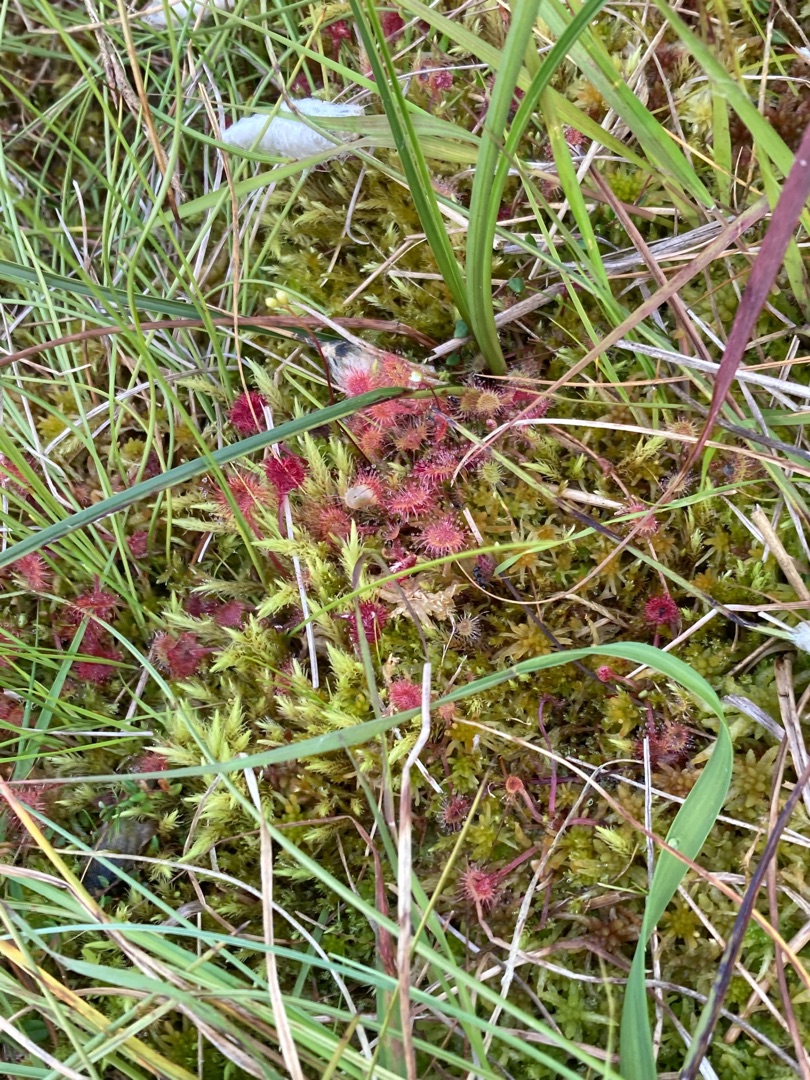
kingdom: Plantae
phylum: Tracheophyta
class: Magnoliopsida
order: Caryophyllales
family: Droseraceae
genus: Drosera
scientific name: Drosera rotundifolia
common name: Rundbladet soldug
